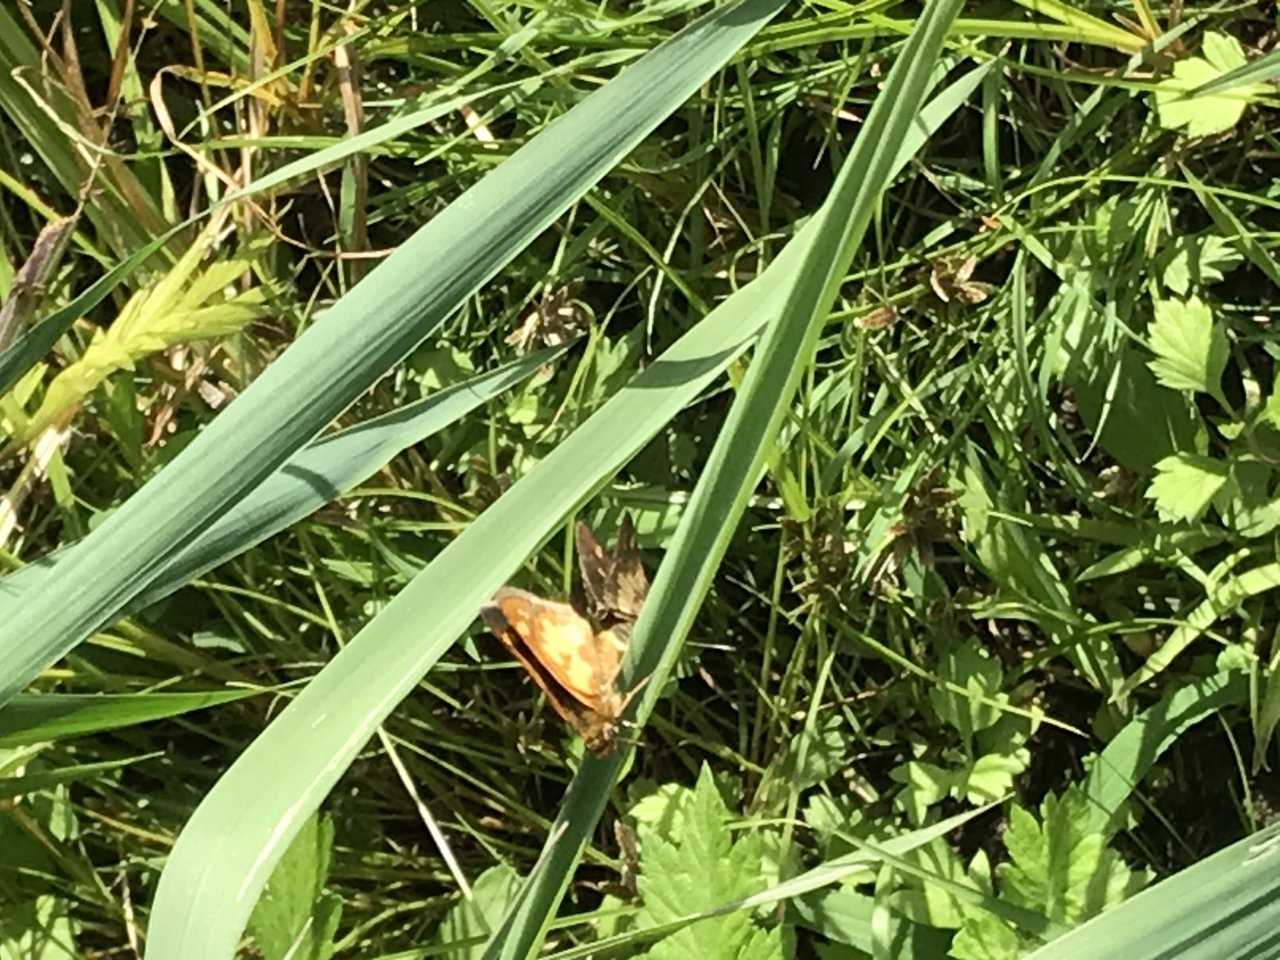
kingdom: Animalia
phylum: Arthropoda
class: Insecta
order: Lepidoptera
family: Hesperiidae
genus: Polites
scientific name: Polites coras
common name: Peck's Skipper
